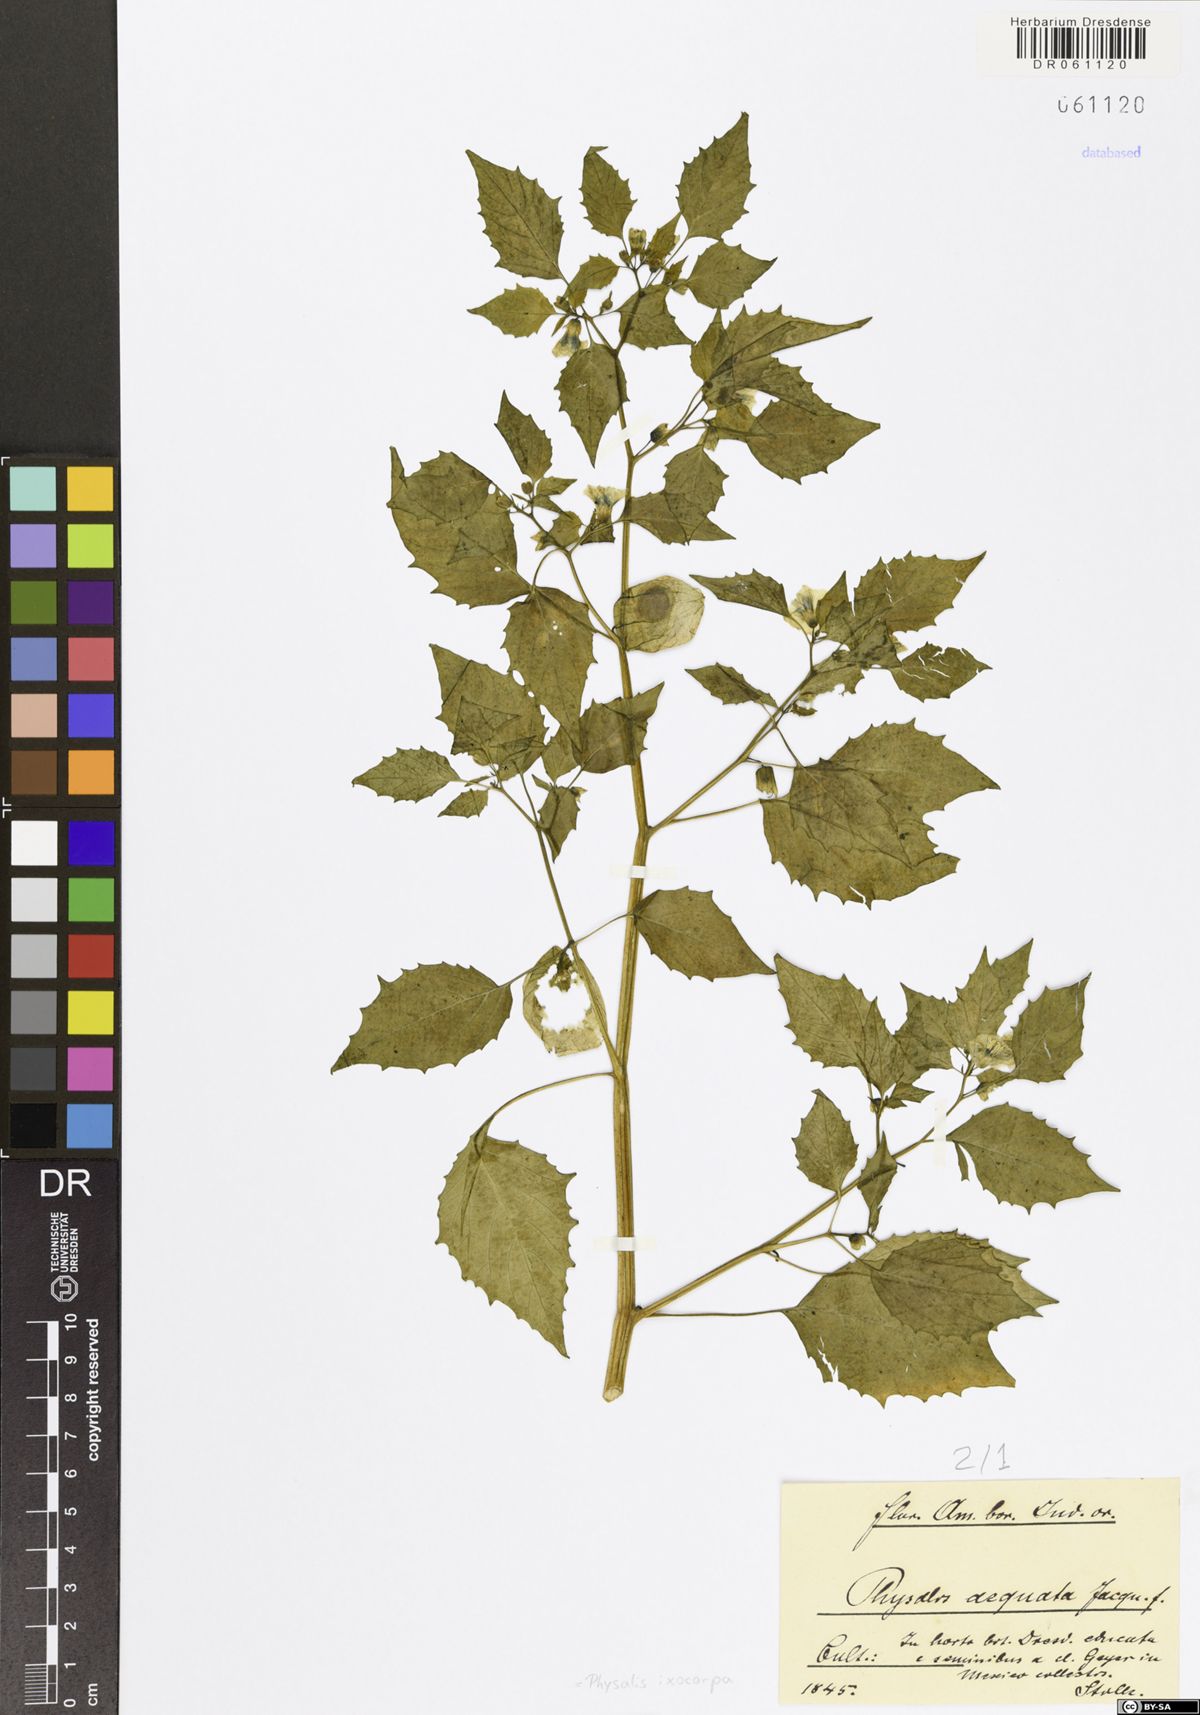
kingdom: Plantae
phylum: Tracheophyta
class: Magnoliopsida
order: Solanales
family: Solanaceae
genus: Physalis
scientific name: Physalis philadelphica
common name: Husk-tomato
